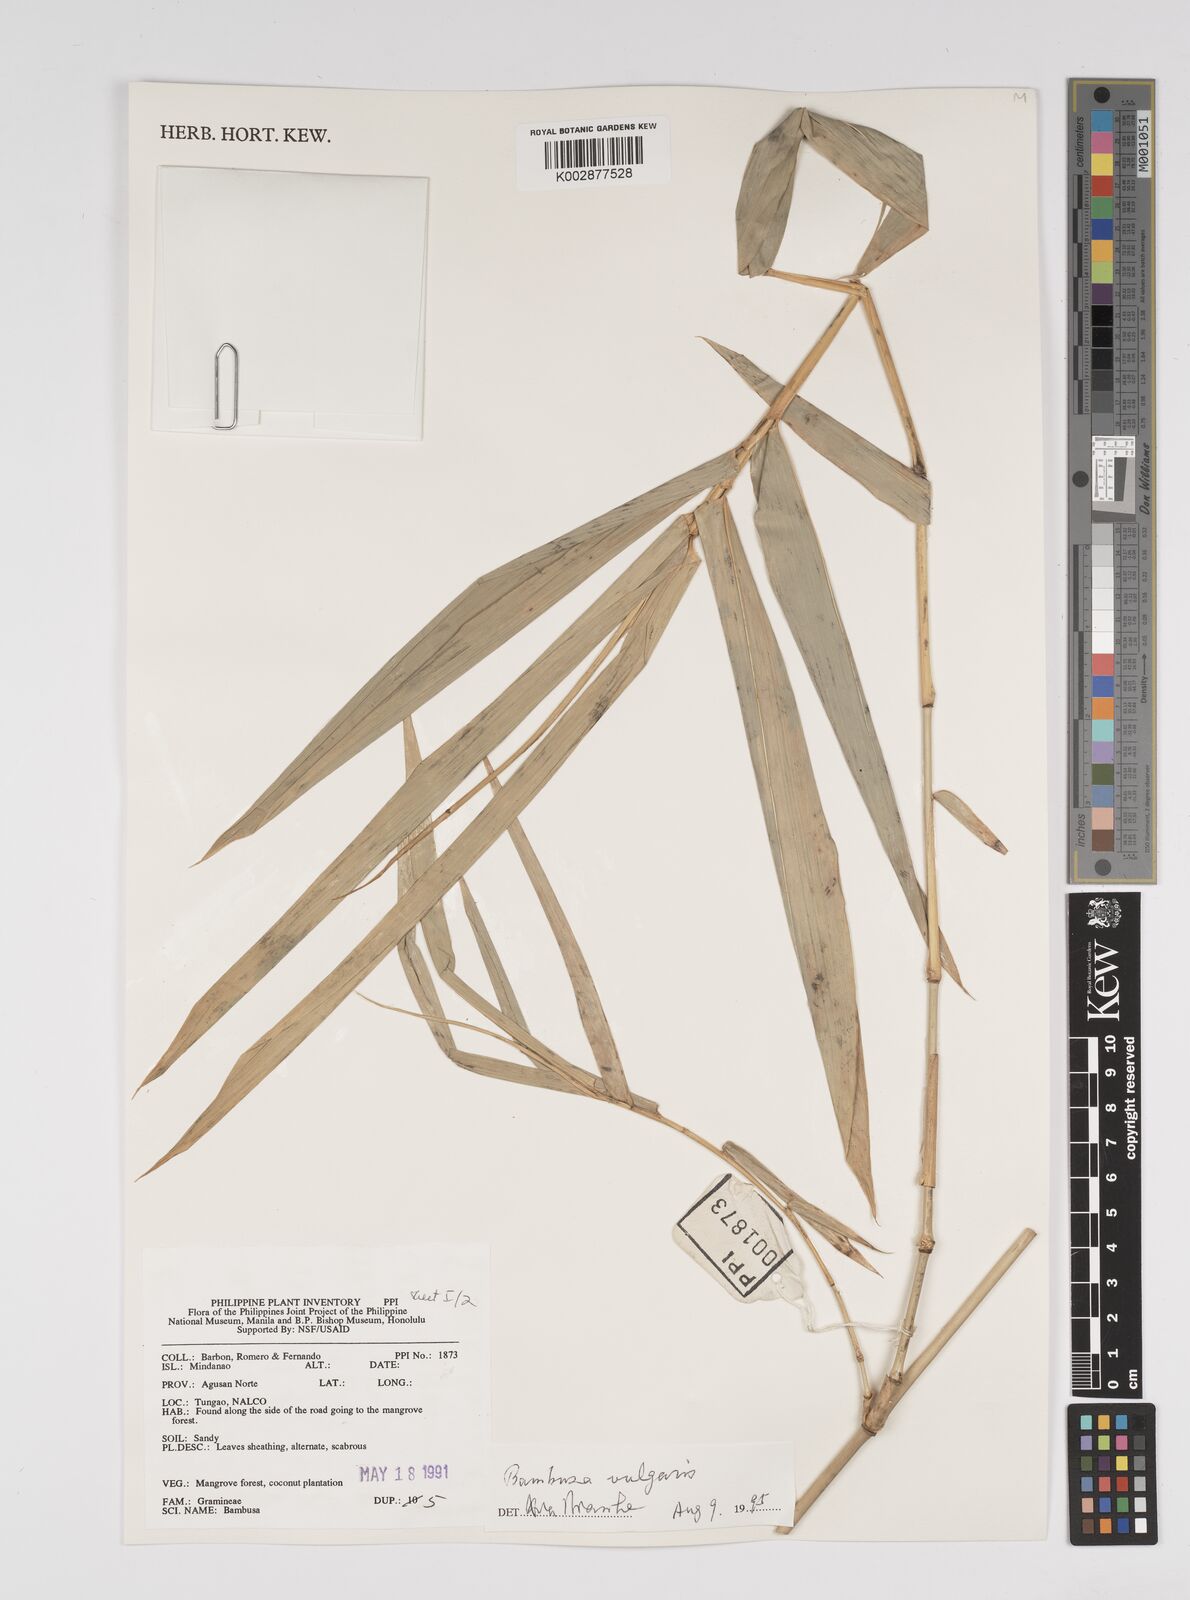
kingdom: Plantae
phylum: Tracheophyta
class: Liliopsida
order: Poales
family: Poaceae
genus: Bambusa
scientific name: Bambusa vulgaris
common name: Common bamboo
